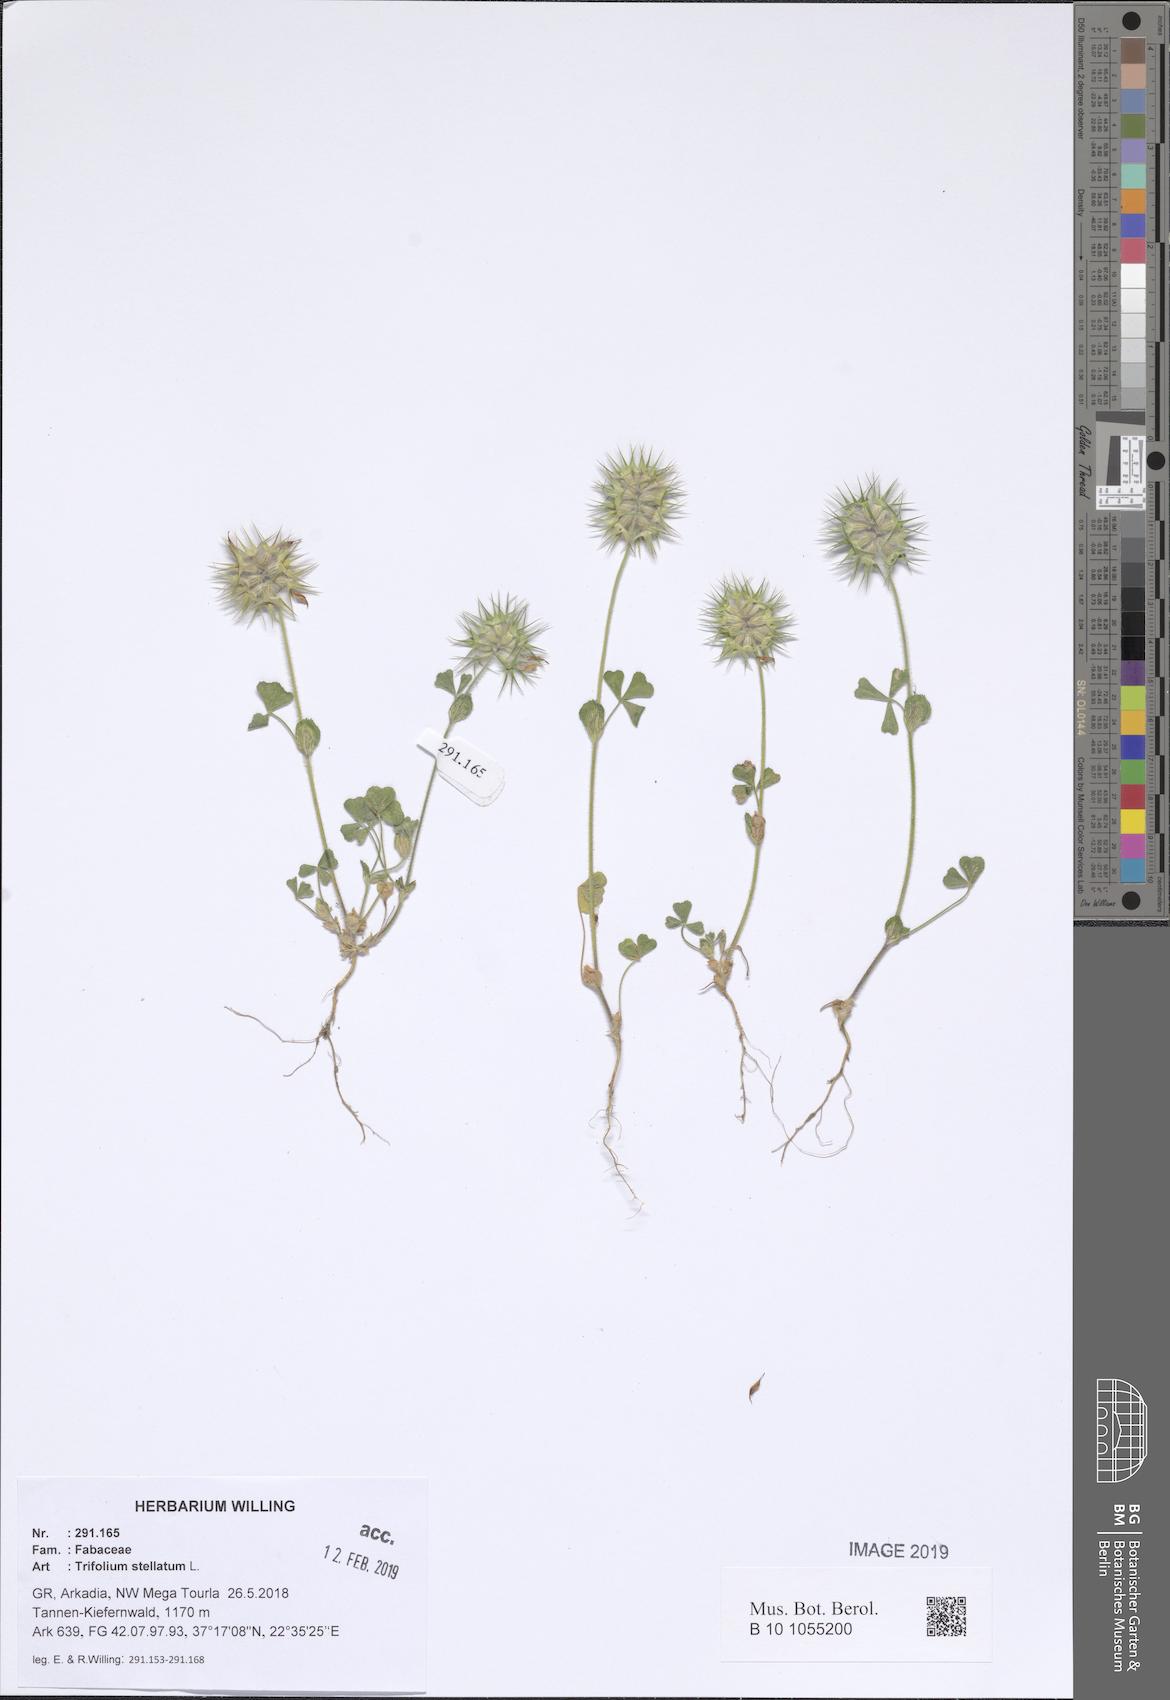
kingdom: Plantae
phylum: Tracheophyta
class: Magnoliopsida
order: Fabales
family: Fabaceae
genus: Trifolium
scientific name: Trifolium stellatum
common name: Starry clover
